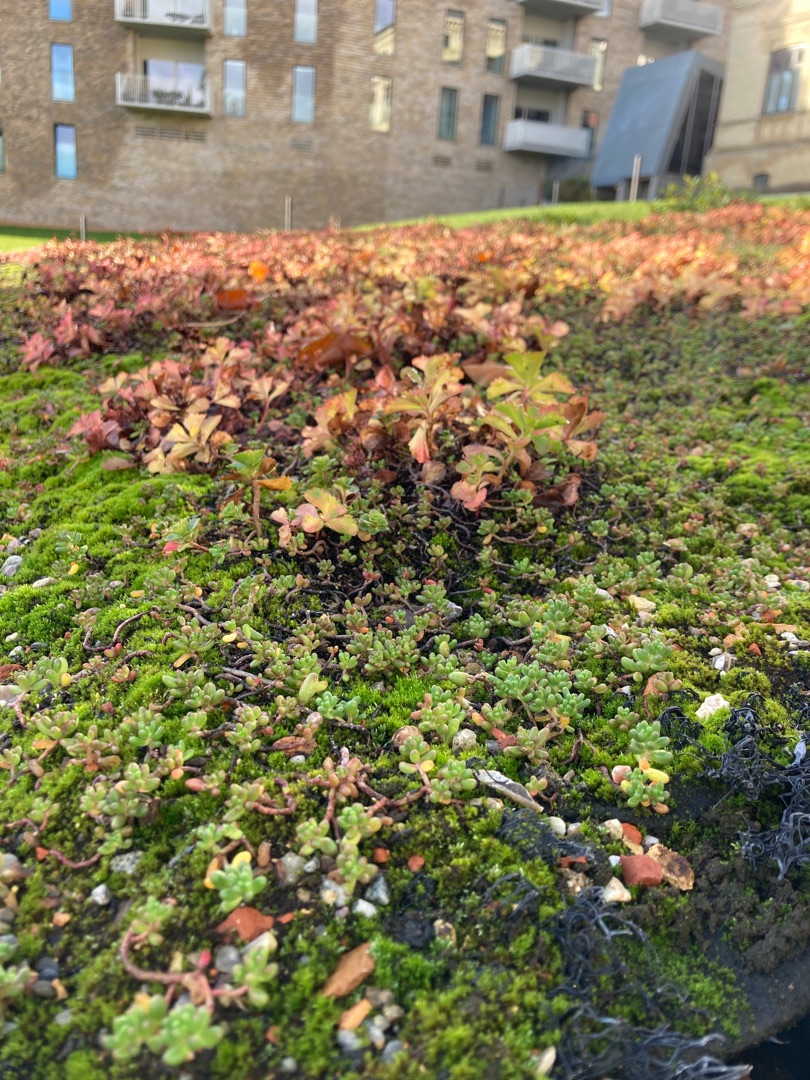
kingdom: Plantae
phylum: Tracheophyta
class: Magnoliopsida
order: Saxifragales
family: Crassulaceae
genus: Sedum
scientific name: Sedum album
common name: Hvid stenurt
